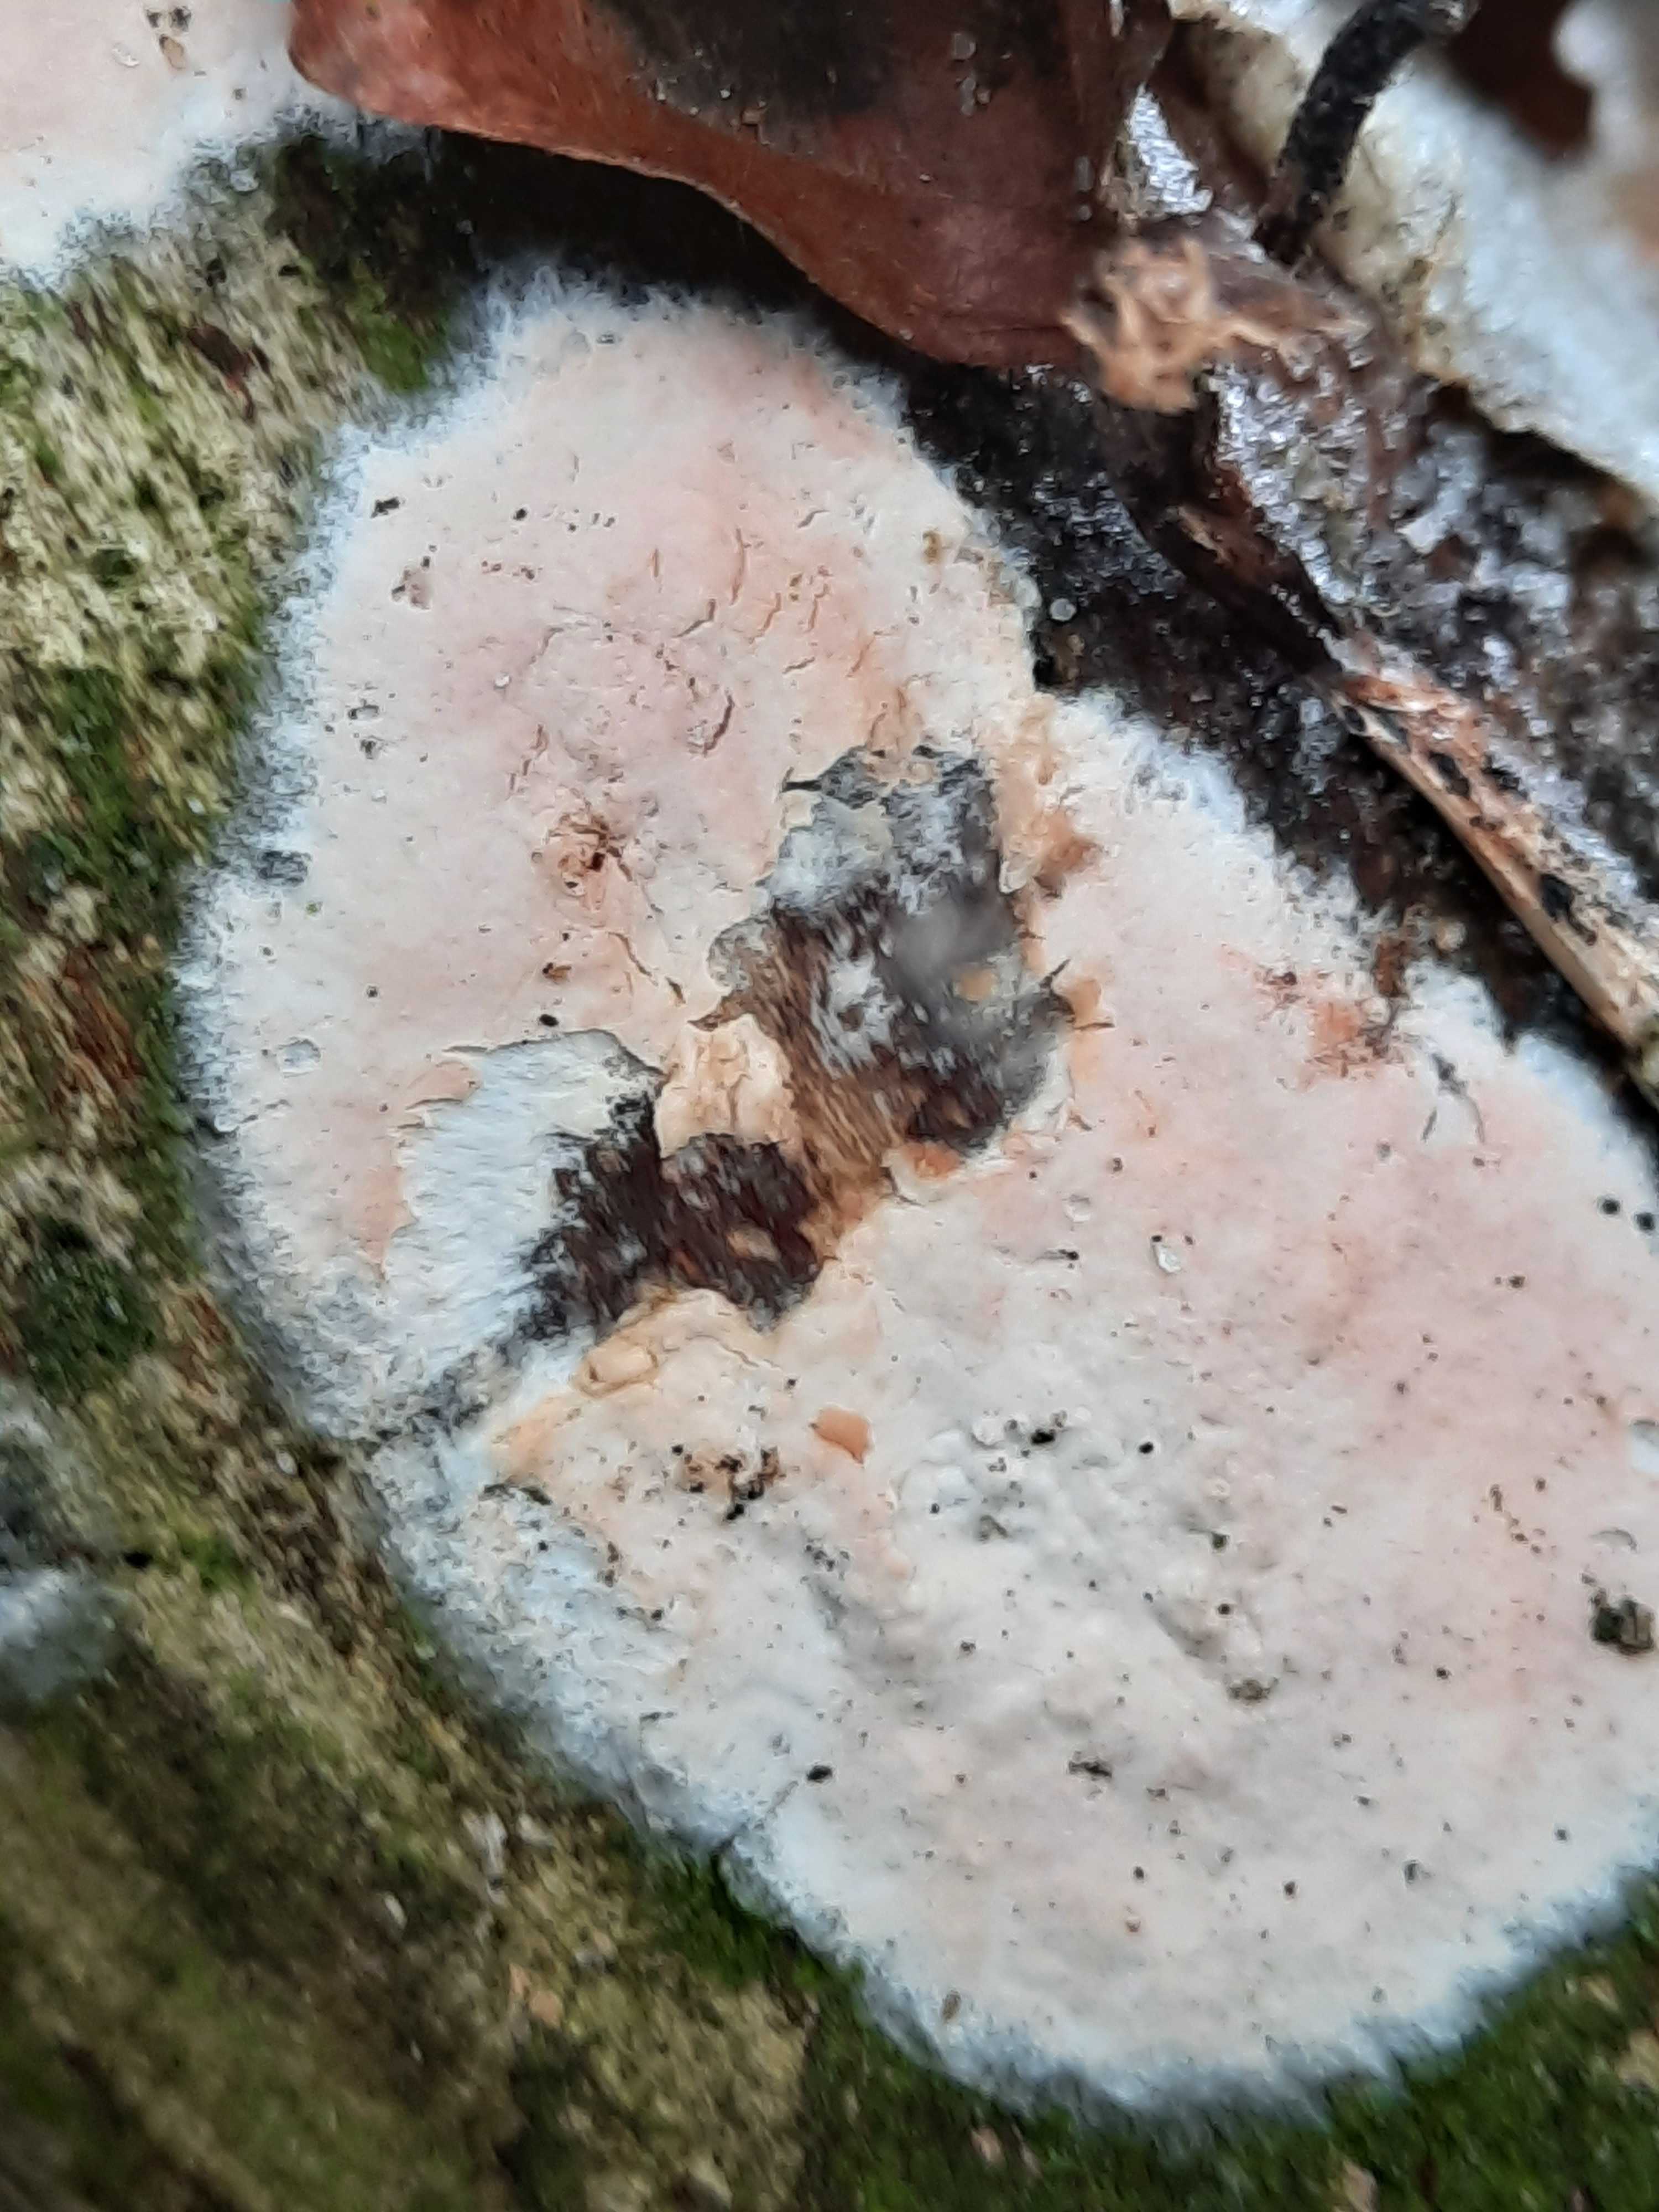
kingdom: Fungi
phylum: Basidiomycota
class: Agaricomycetes
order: Agaricales
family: Physalacriaceae
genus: Cylindrobasidium
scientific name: Cylindrobasidium evolvens
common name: sprækkehinde
